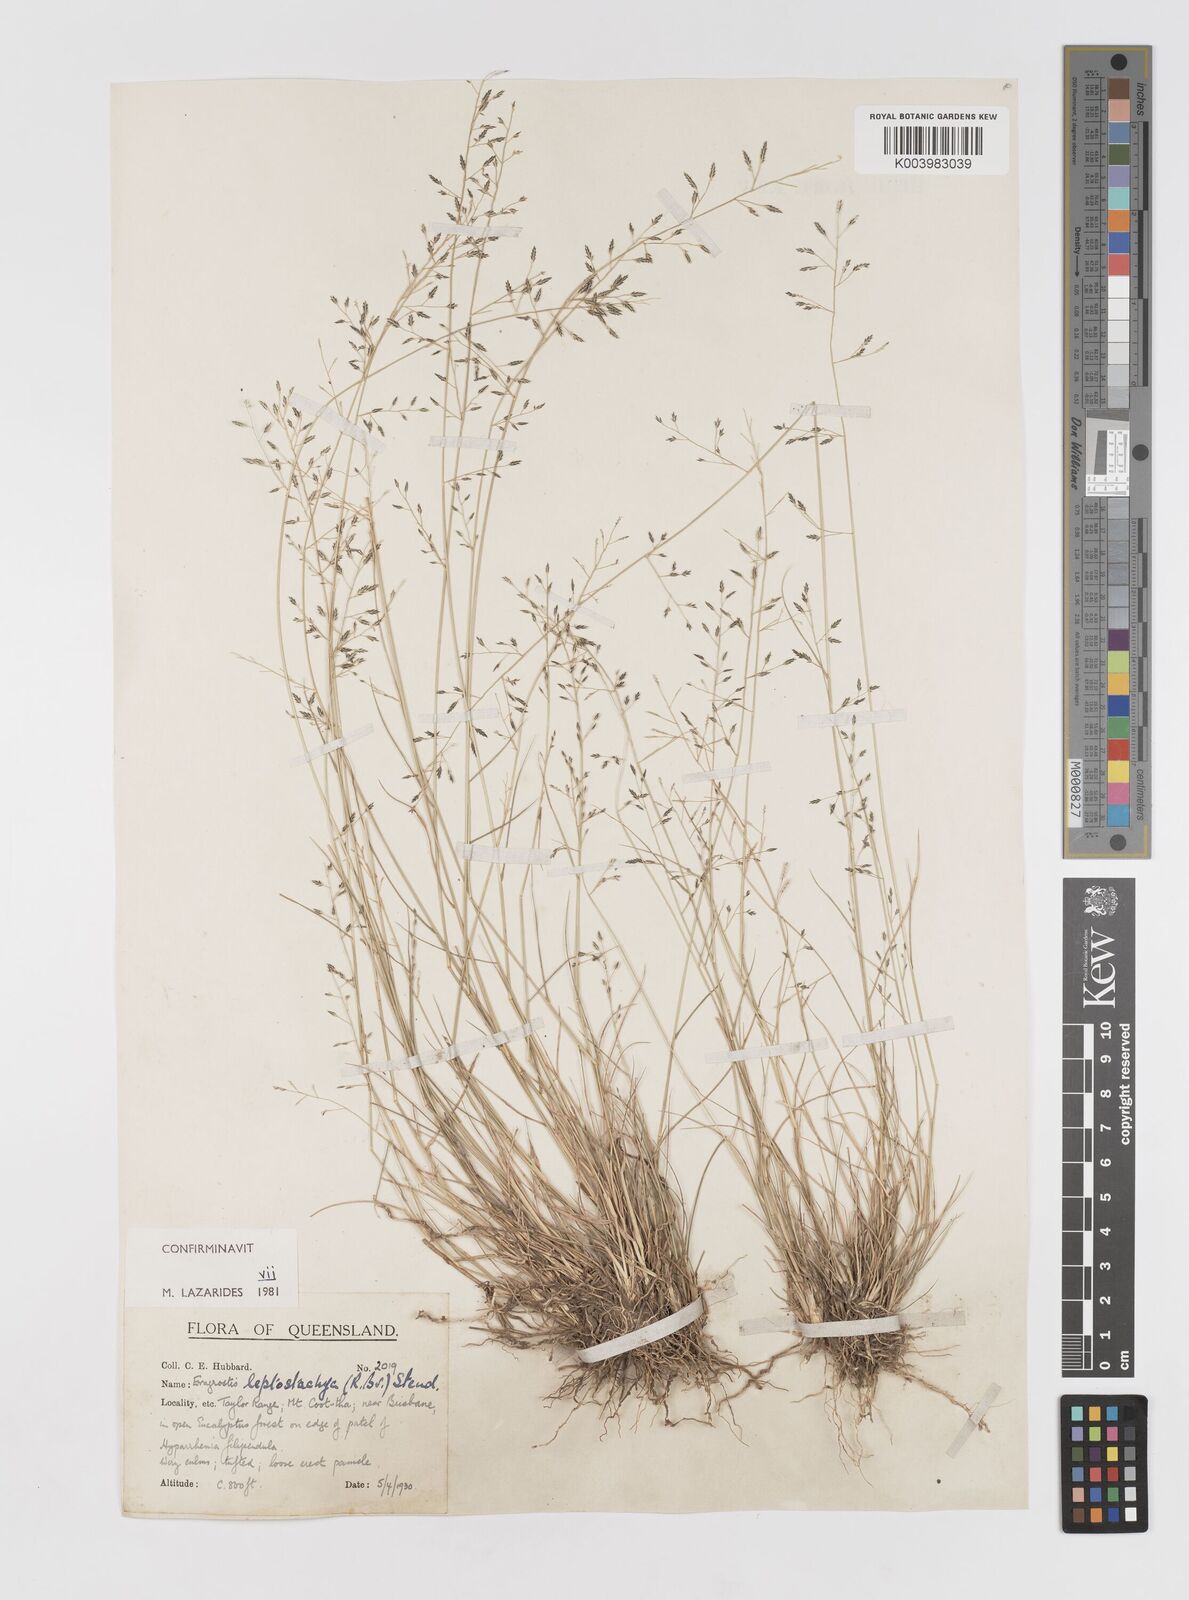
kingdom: Plantae
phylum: Tracheophyta
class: Liliopsida
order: Poales
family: Poaceae
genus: Eragrostis
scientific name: Eragrostis leptostachya
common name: Australian lovegrass
